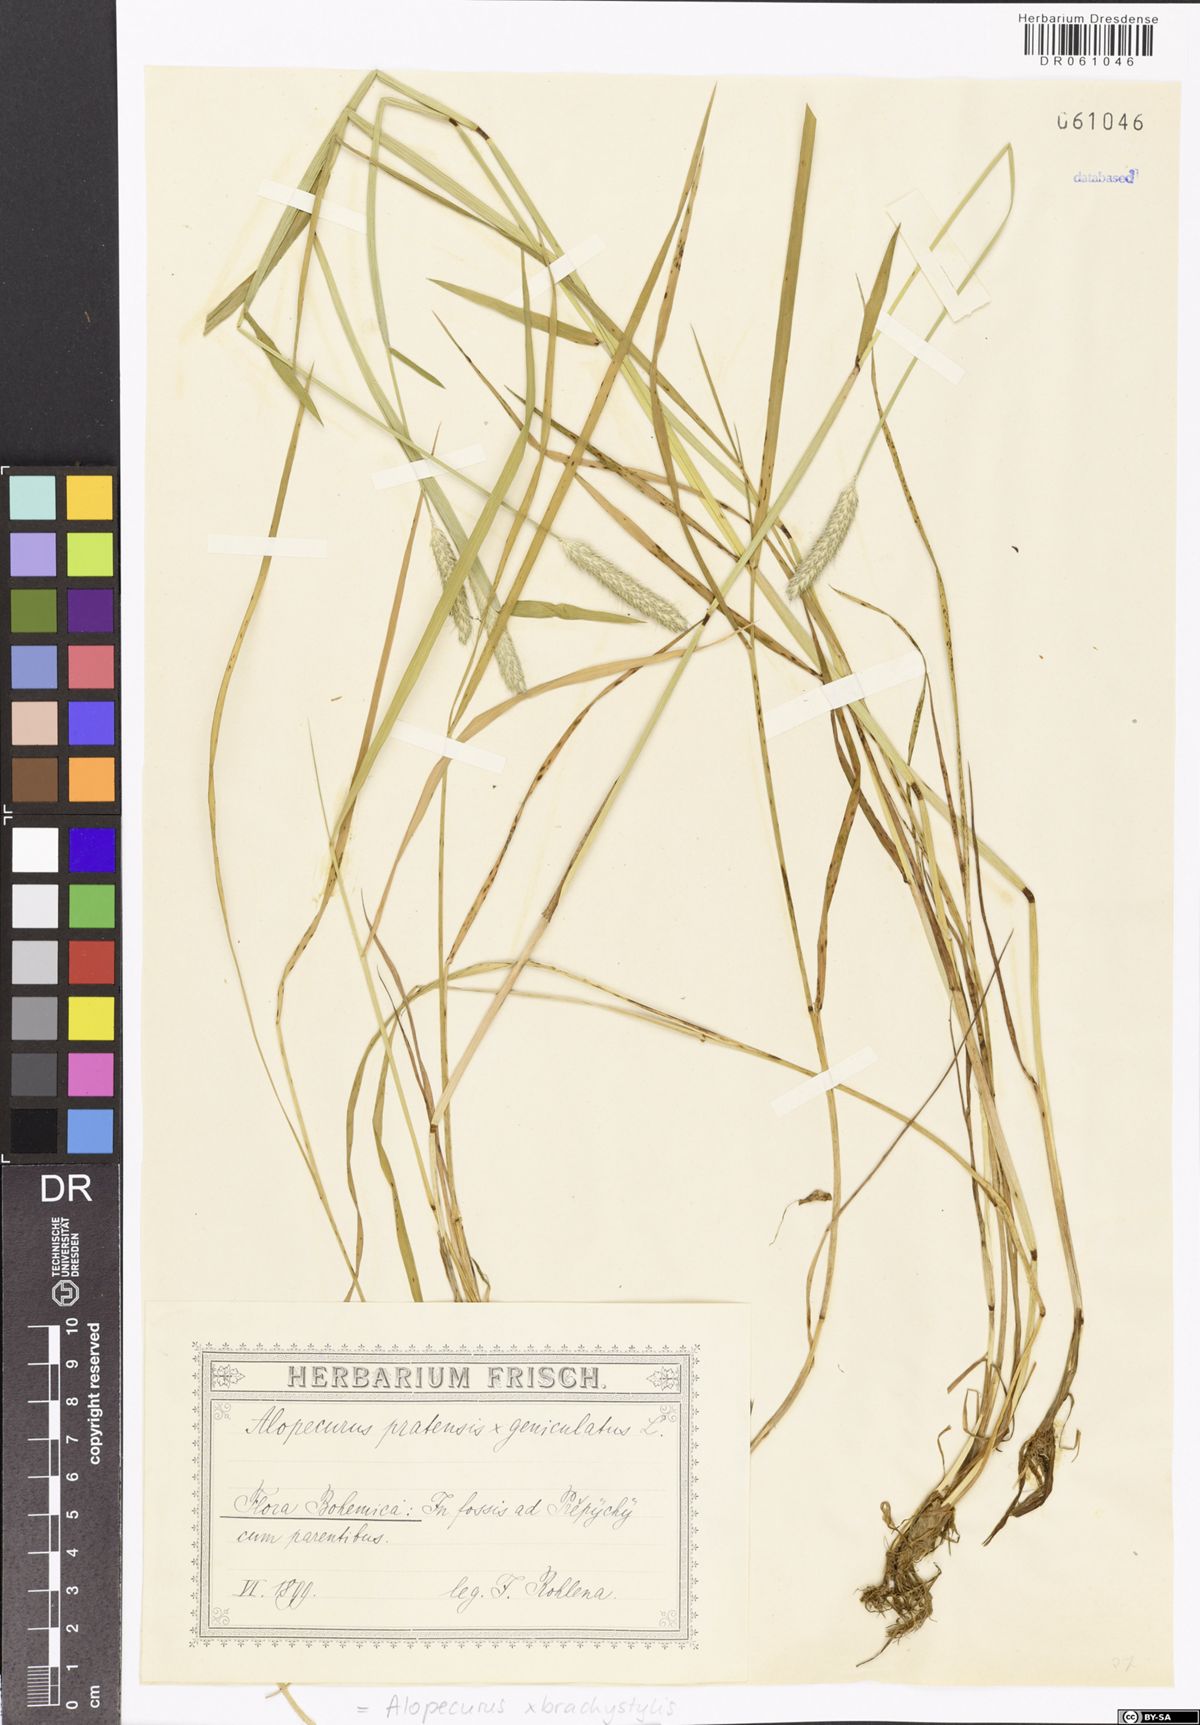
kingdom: Plantae
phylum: Tracheophyta
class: Liliopsida
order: Poales
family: Poaceae
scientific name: Poaceae
